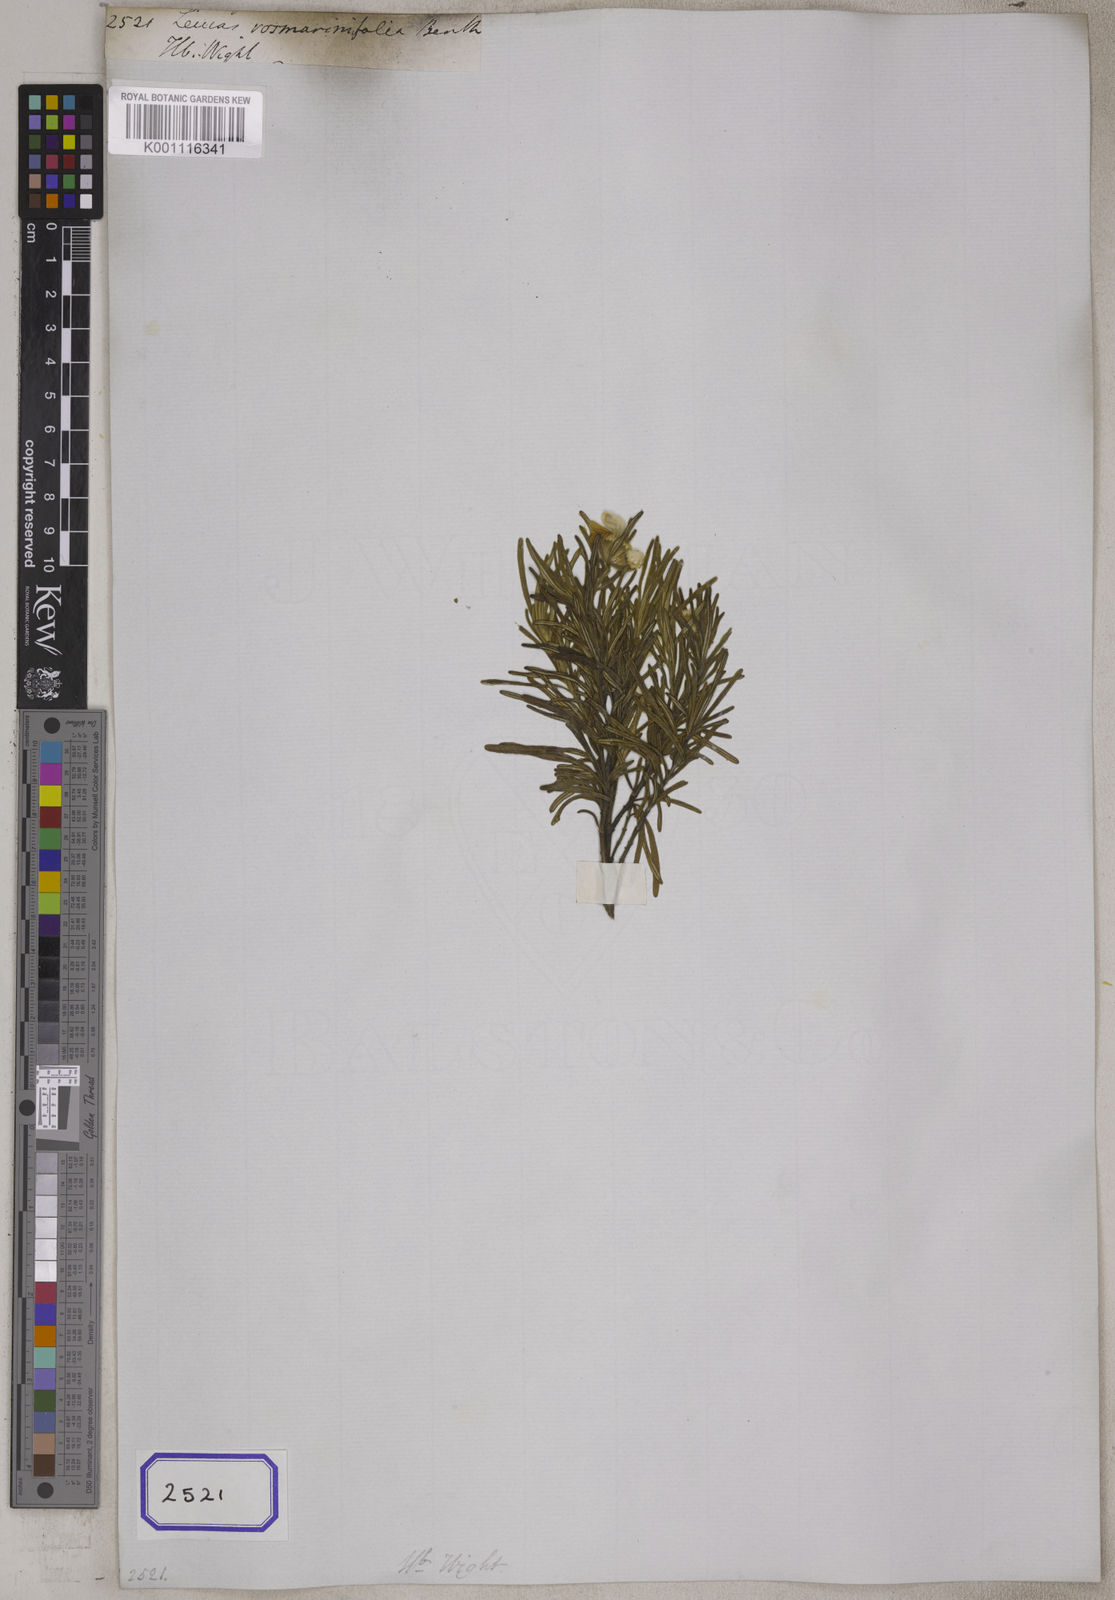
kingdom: Plantae
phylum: Tracheophyta
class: Magnoliopsida
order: Lamiales
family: Lamiaceae
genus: Leucas
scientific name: Leucas rosmarinifolia
